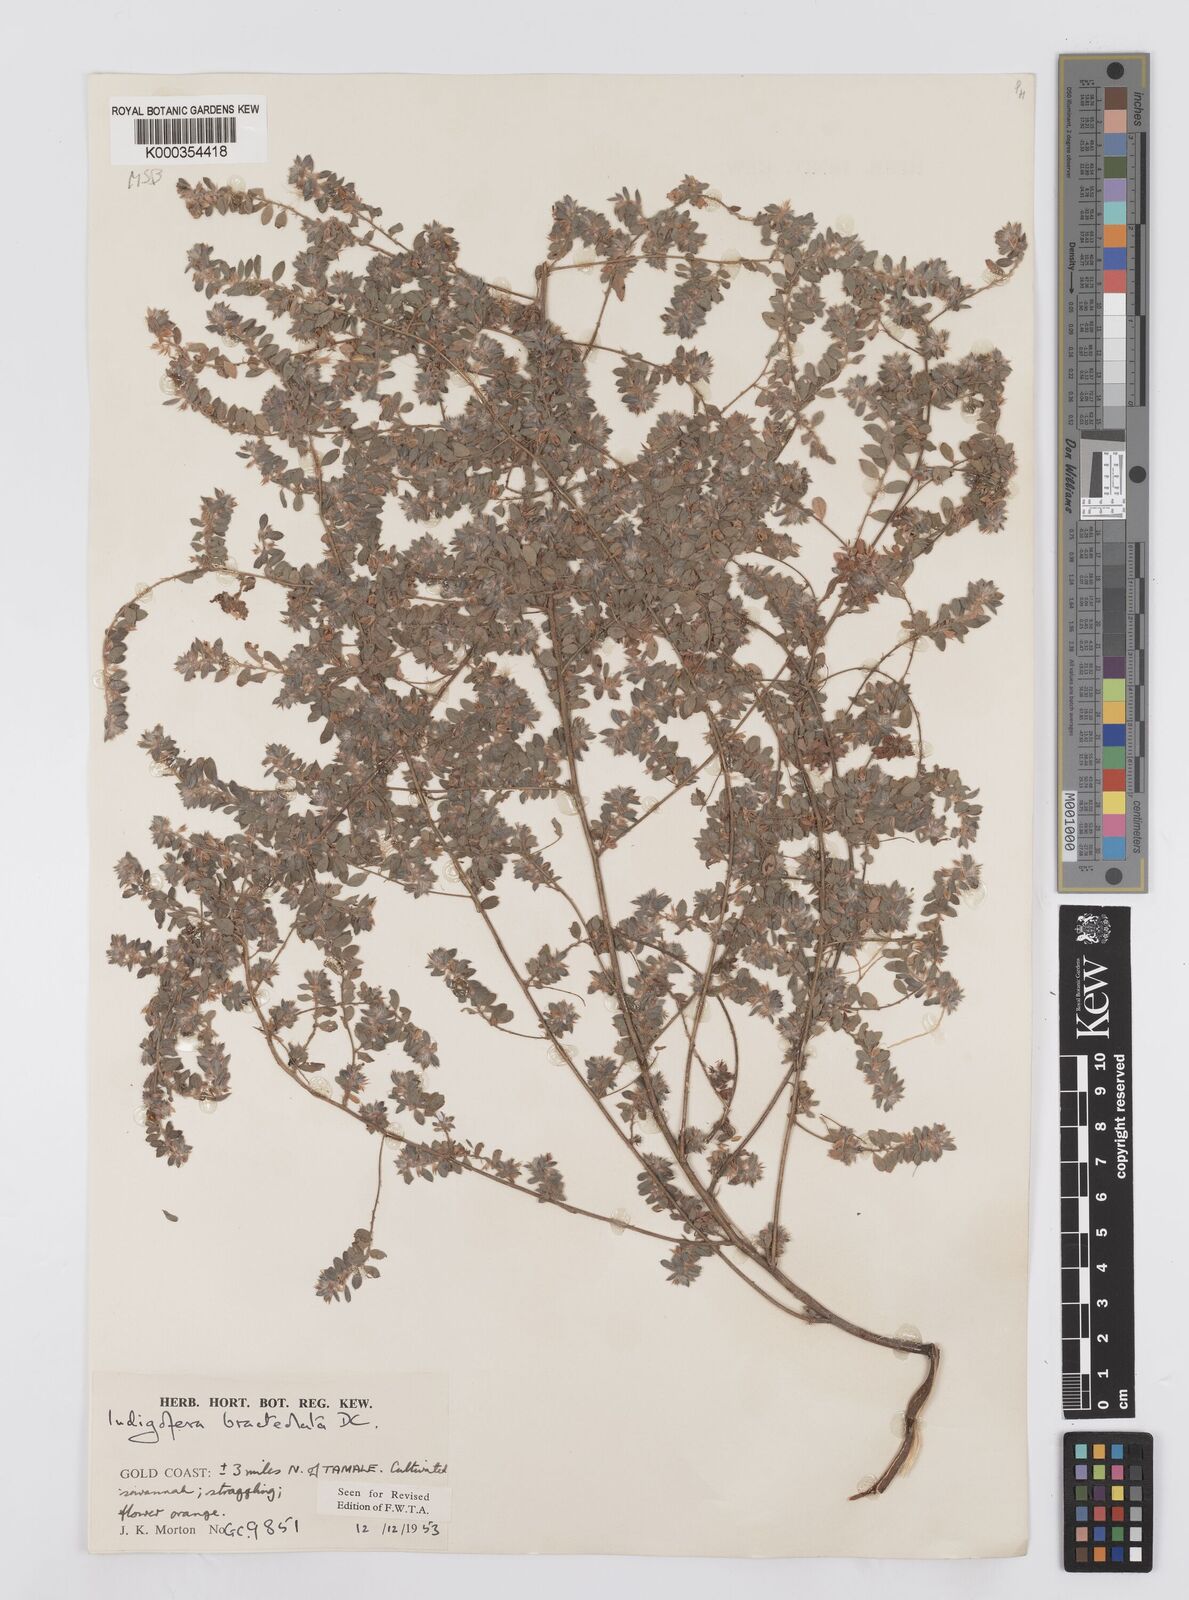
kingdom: Plantae
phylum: Tracheophyta
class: Magnoliopsida
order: Fabales
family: Fabaceae
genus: Indigofera
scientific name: Indigofera bracteolata
